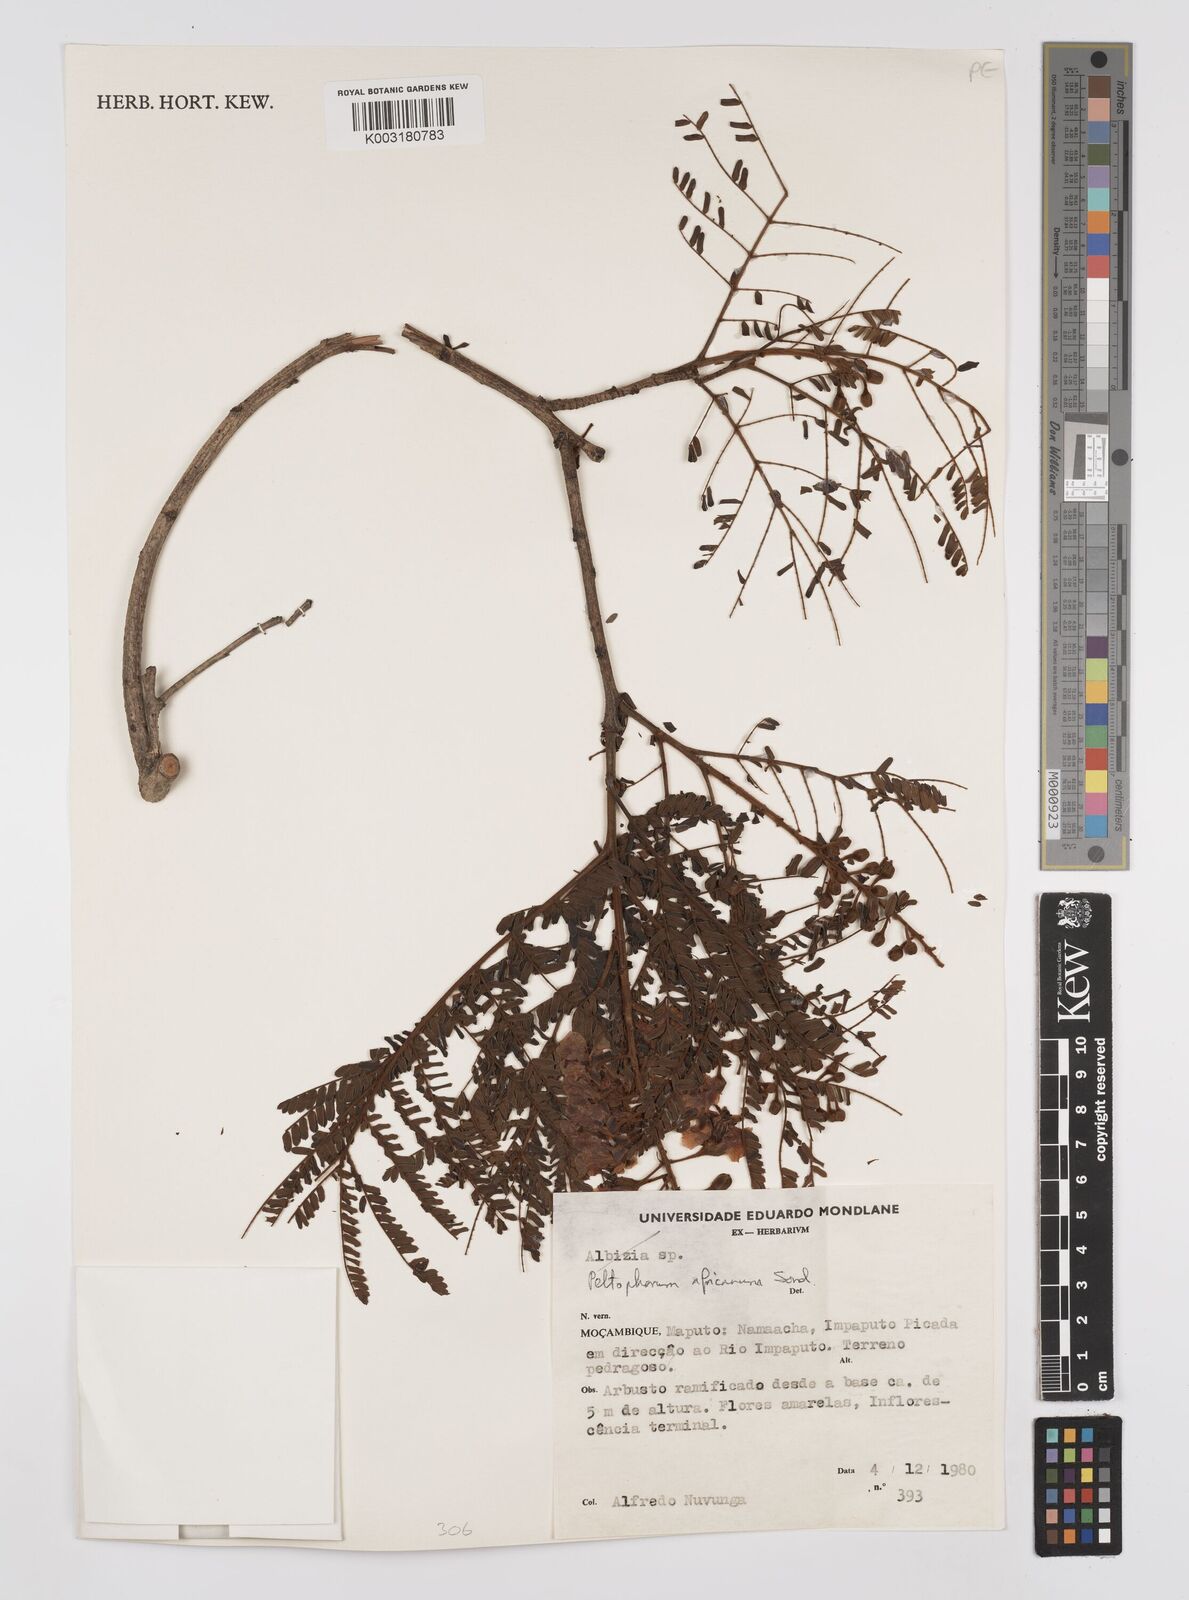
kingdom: Plantae
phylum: Tracheophyta
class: Magnoliopsida
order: Fabales
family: Fabaceae
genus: Peltophorum
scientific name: Peltophorum africanum
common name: African black wattle
